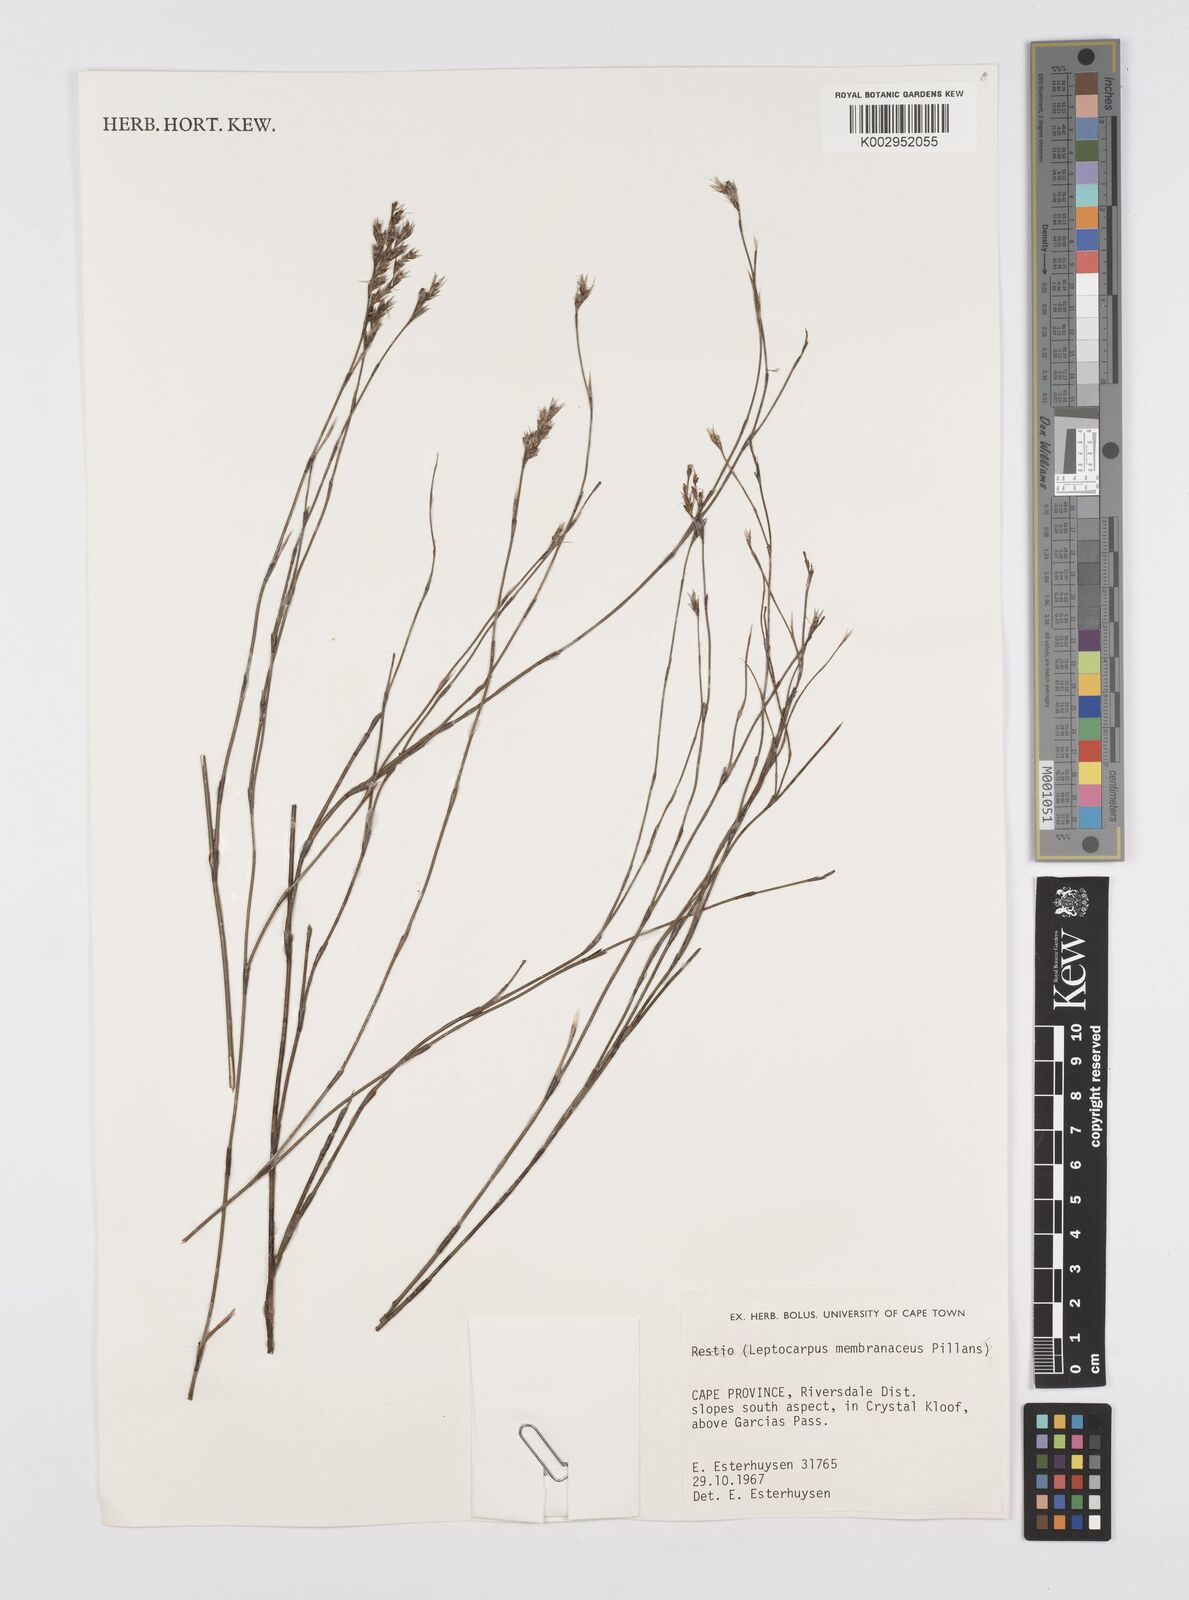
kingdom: Plantae
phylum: Tracheophyta
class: Liliopsida
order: Poales
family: Restionaceae
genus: Elegia
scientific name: Elegia intermedia
